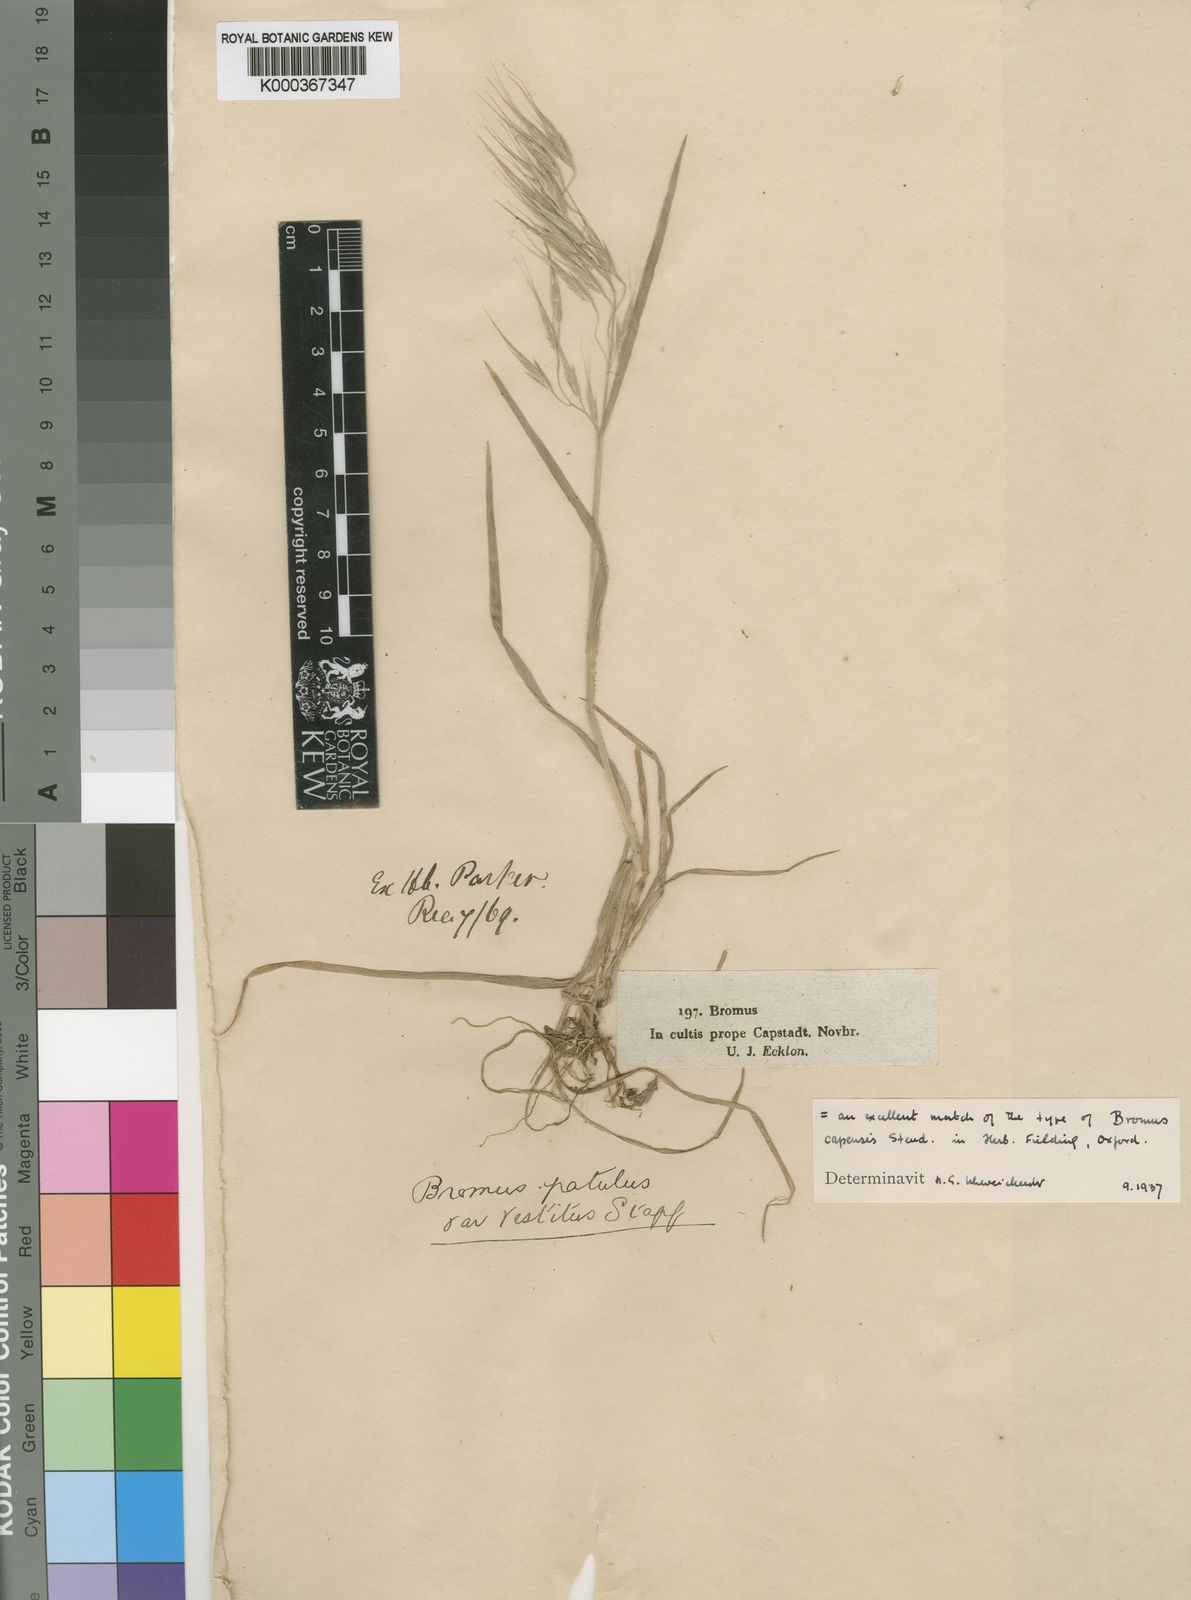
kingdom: Plantae
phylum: Tracheophyta
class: Liliopsida
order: Poales
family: Poaceae
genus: Bromus
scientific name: Bromus pectinatus
